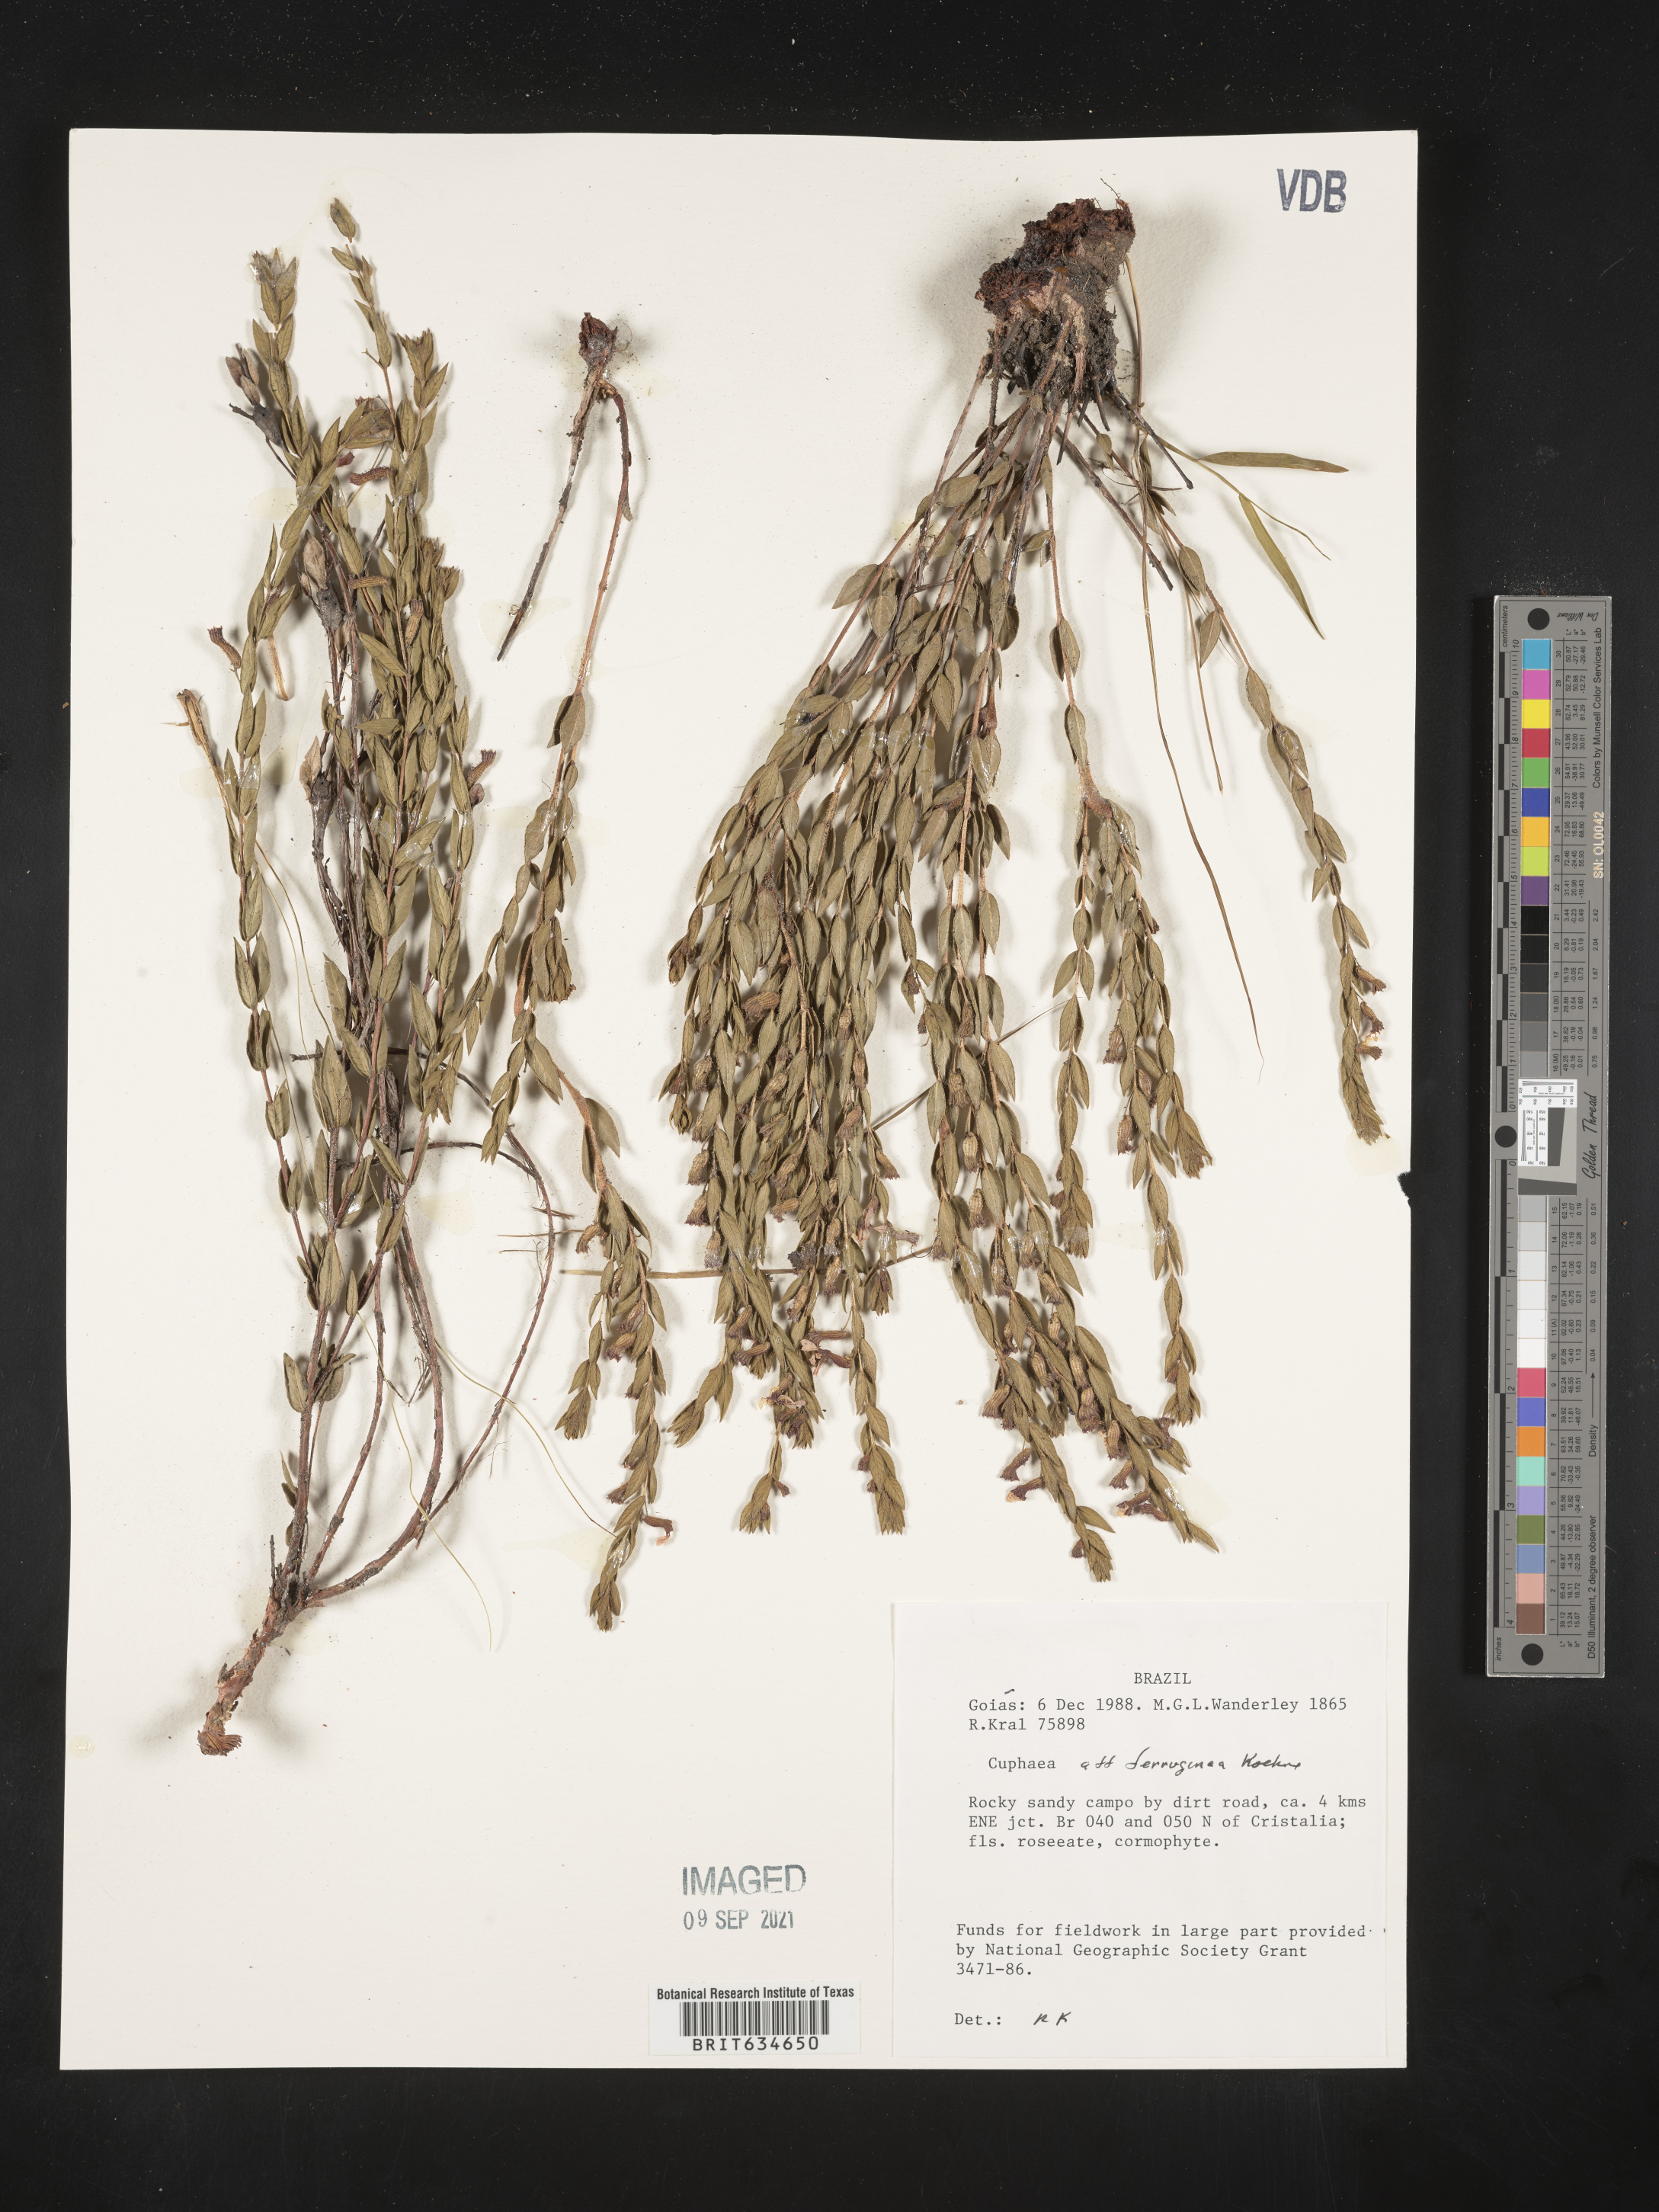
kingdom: Plantae
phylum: Tracheophyta
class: Magnoliopsida
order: Myrtales
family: Lythraceae
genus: Cuphea
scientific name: Cuphea
